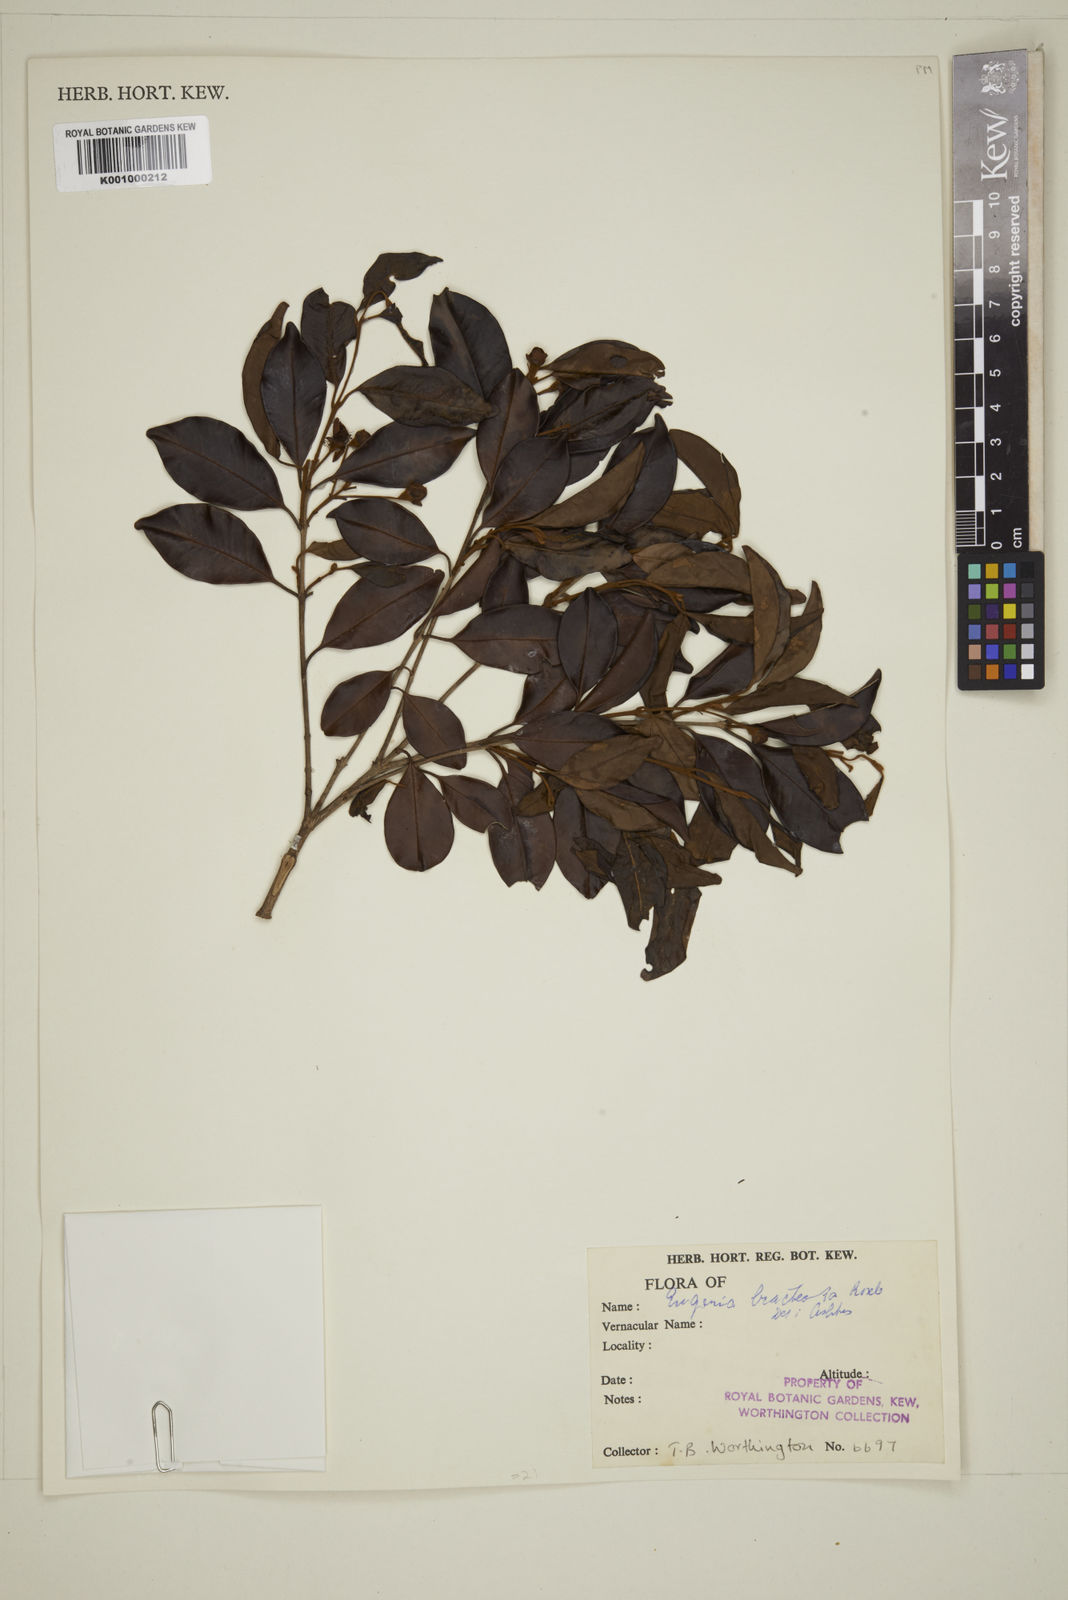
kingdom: Plantae
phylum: Tracheophyta
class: Magnoliopsida
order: Myrtales
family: Myrtaceae
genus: Eugenia
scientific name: Eugenia pseudopsidium
